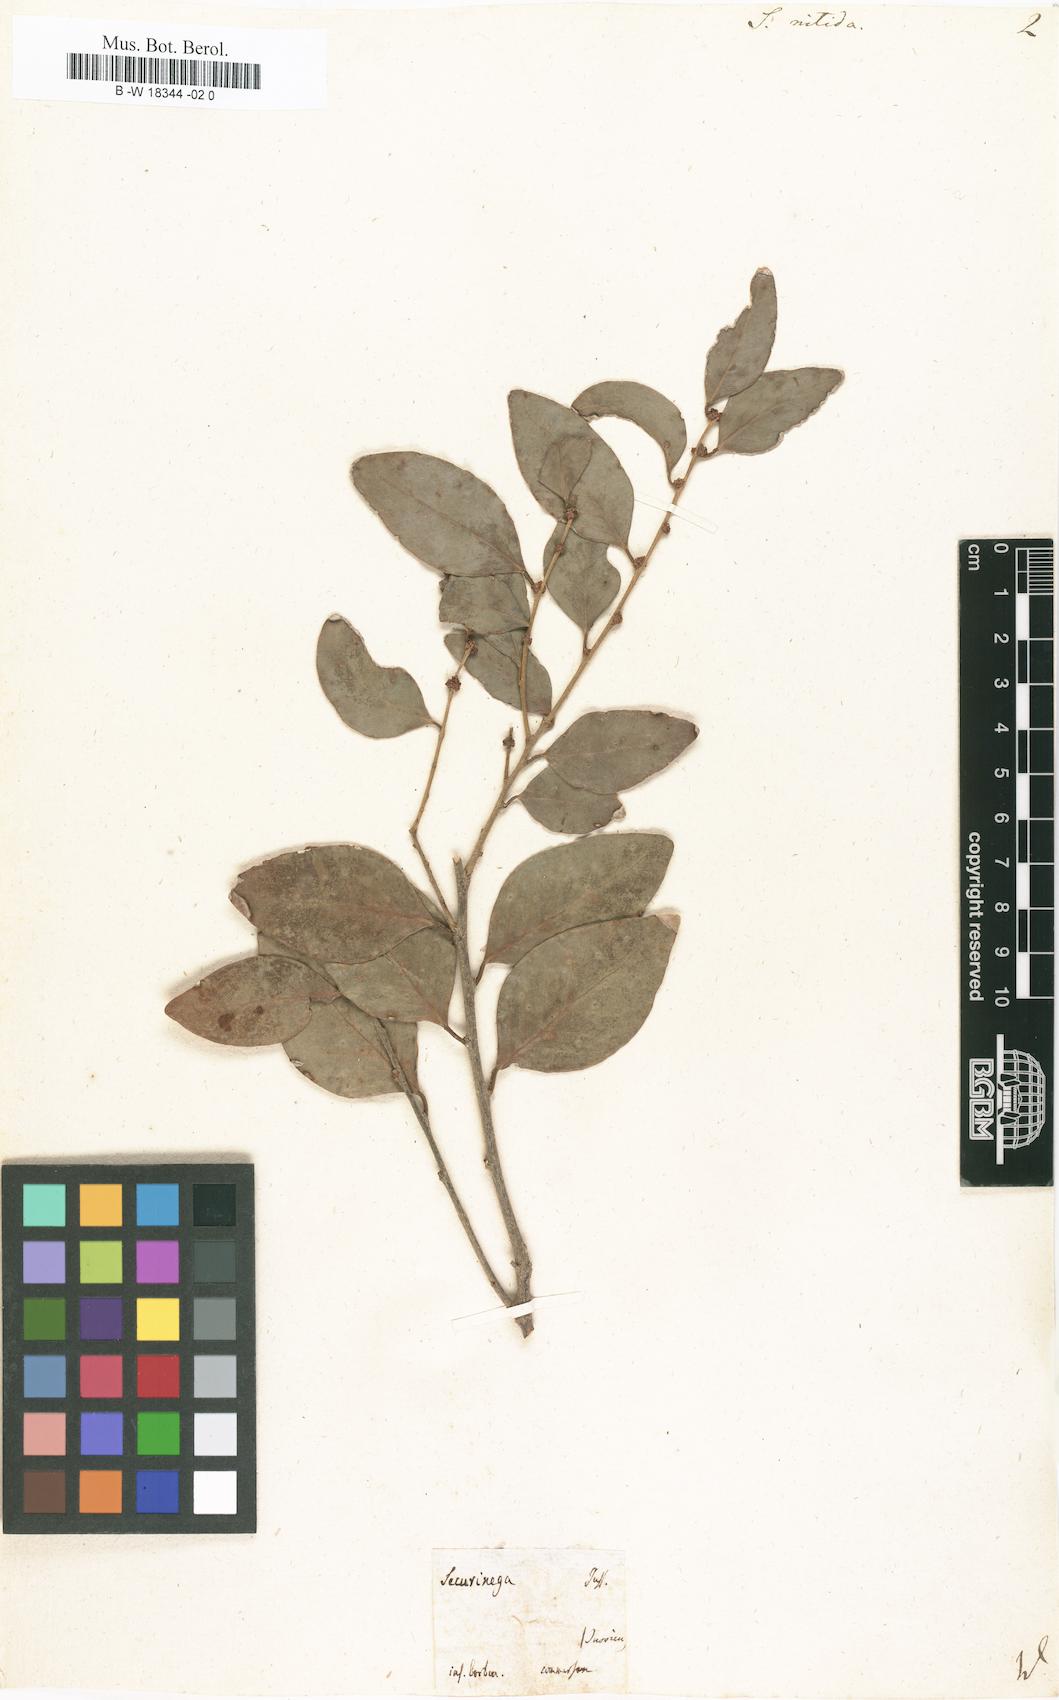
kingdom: Plantae
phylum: Tracheophyta
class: Magnoliopsida
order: Malpighiales
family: Phyllanthaceae
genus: Actephila
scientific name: Actephila lindleyi
